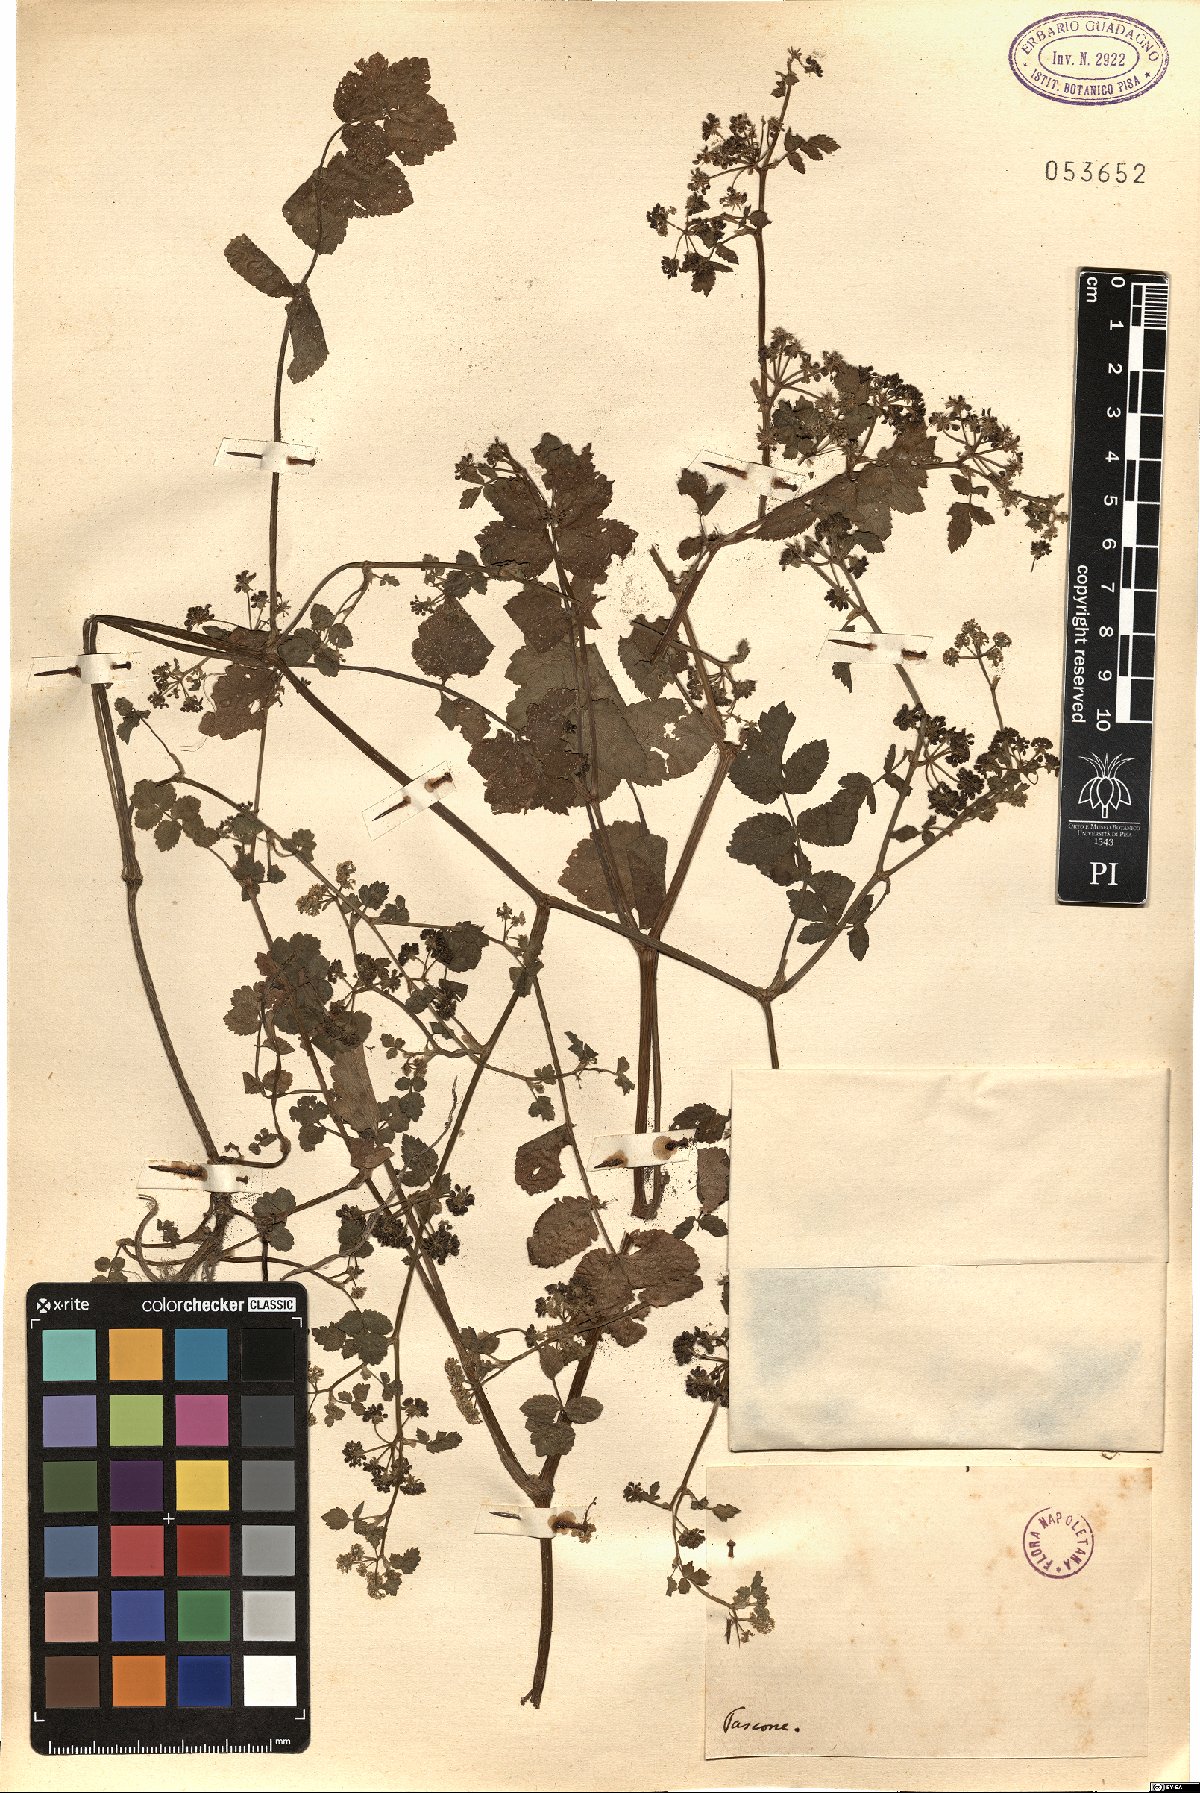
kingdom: Plantae
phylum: Tracheophyta
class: Magnoliopsida
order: Apiales
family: Apiaceae
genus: Helosciadium
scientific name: Helosciadium
